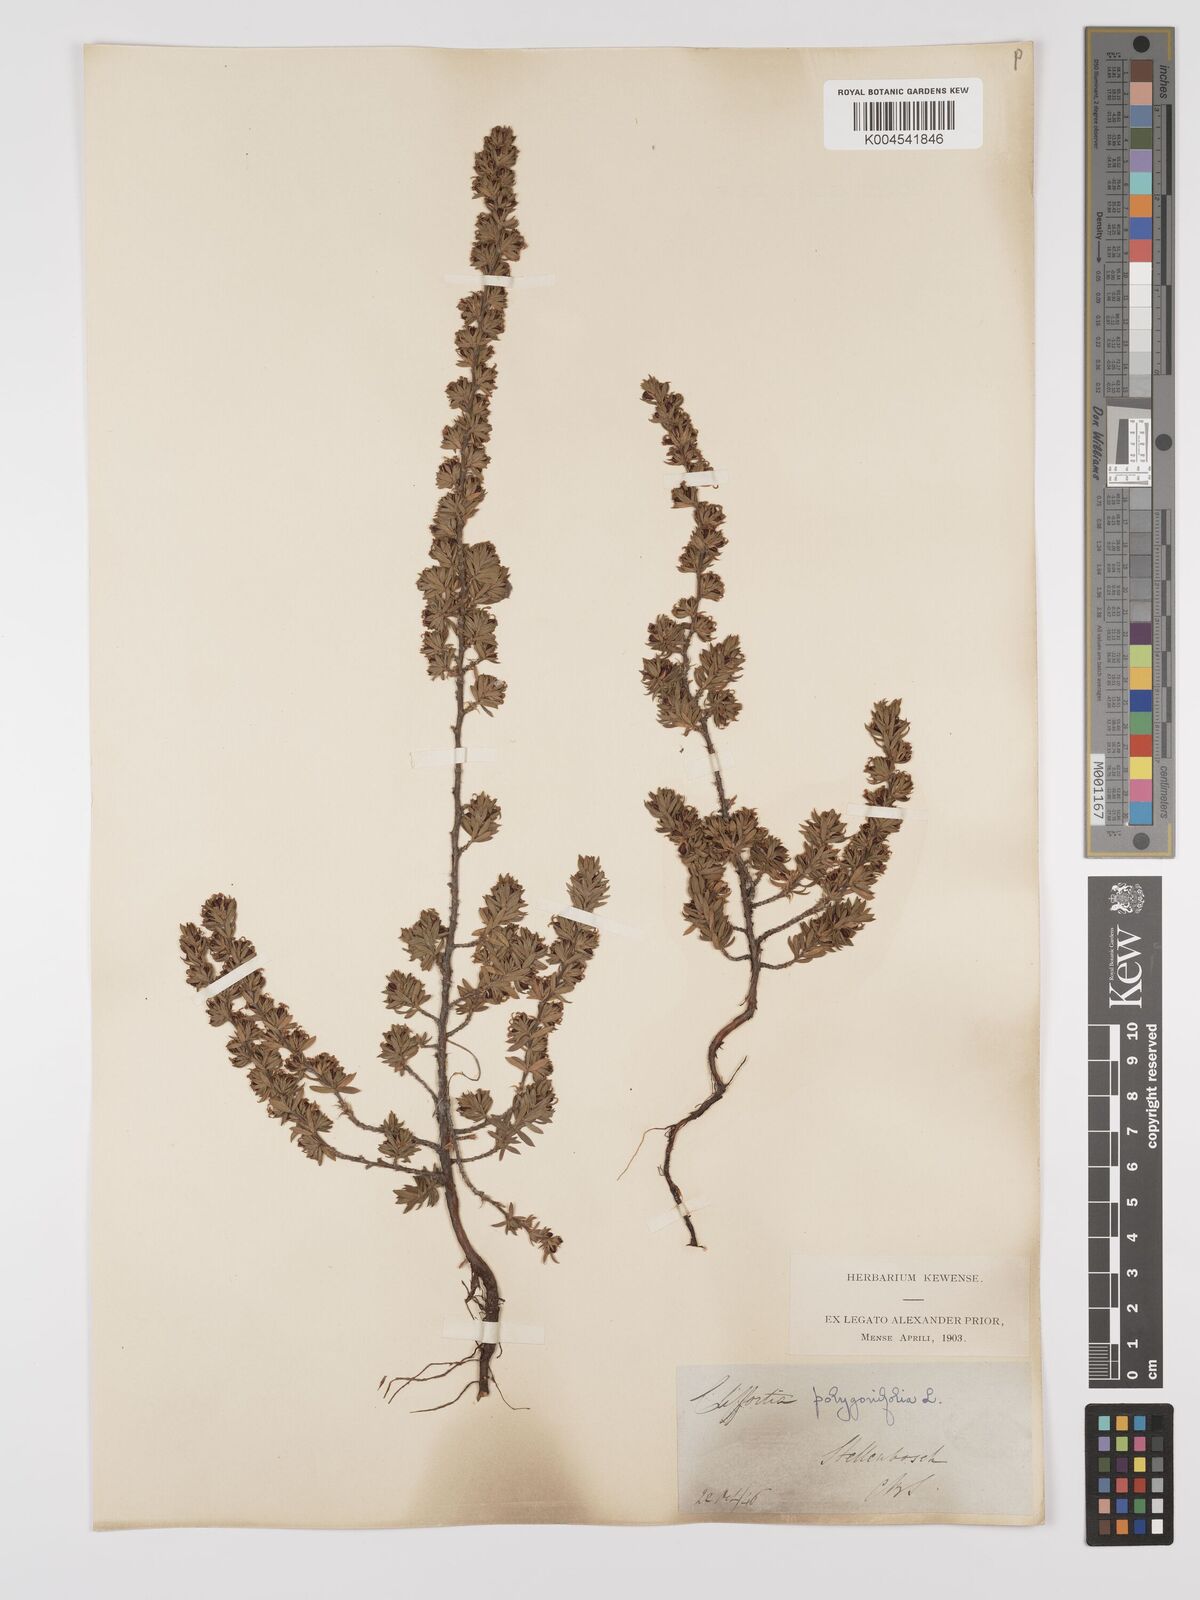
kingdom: Plantae
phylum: Tracheophyta
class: Magnoliopsida
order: Rosales
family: Rosaceae
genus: Cliffortia
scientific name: Cliffortia polygonifolia
